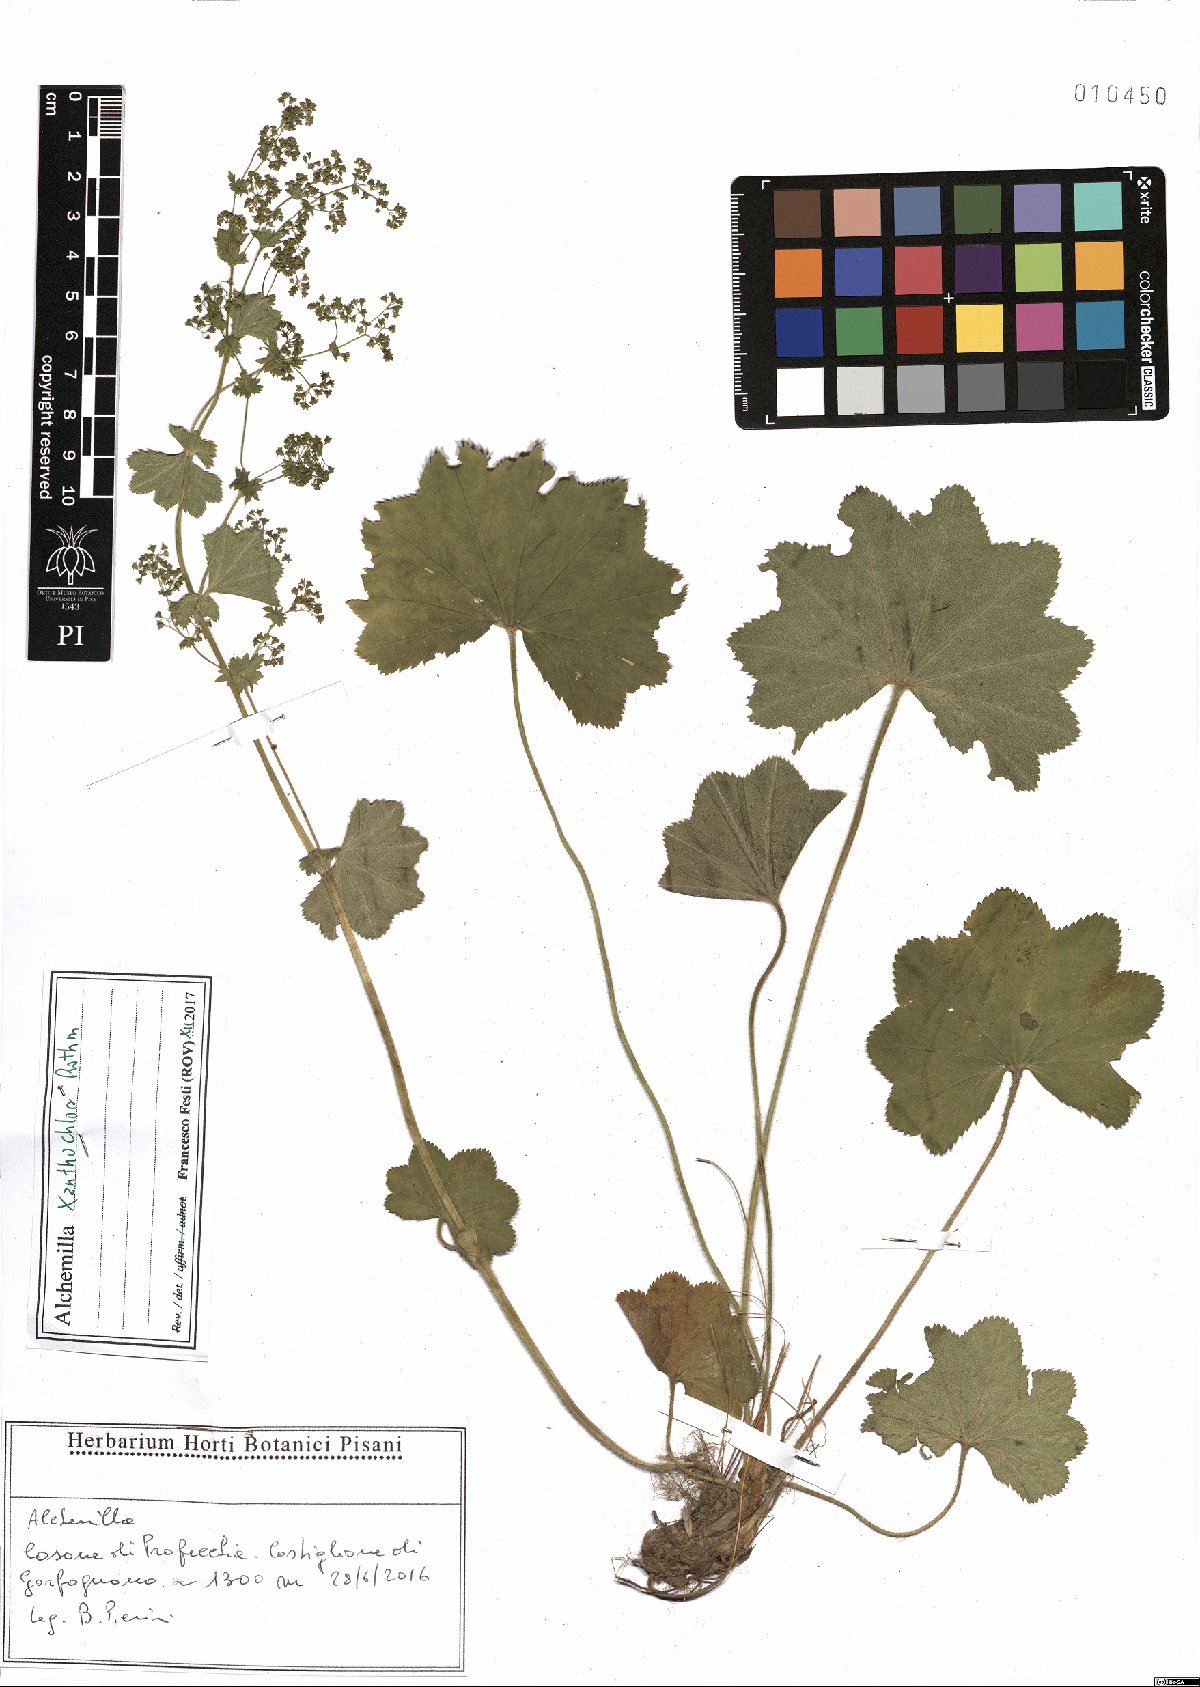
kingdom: Plantae
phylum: Tracheophyta
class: Magnoliopsida
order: Rosales
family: Rosaceae
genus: Alchemilla
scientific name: Alchemilla xanthochlora
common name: Intermediate lady's-mantle
